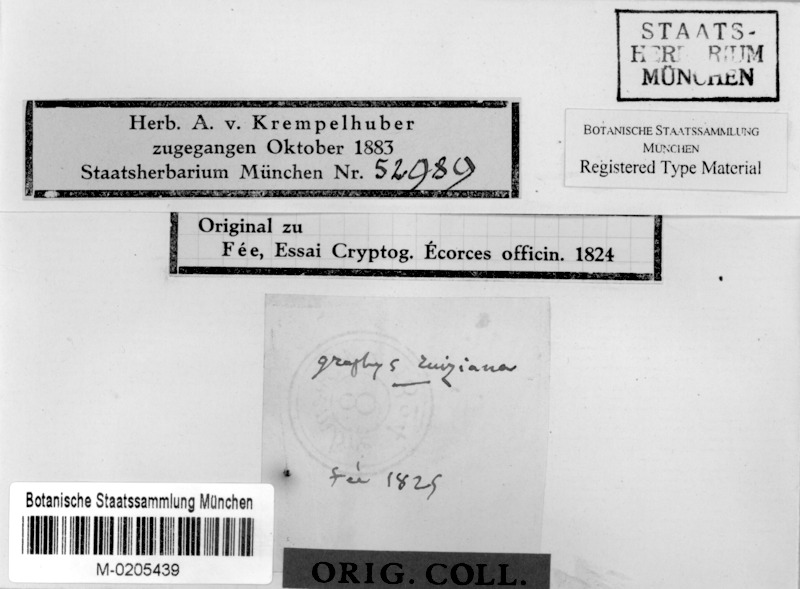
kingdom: Fungi
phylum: Ascomycota
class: Lecanoromycetes
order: Ostropales
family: Graphidaceae
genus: Allographa
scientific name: Allographa ruiziana
